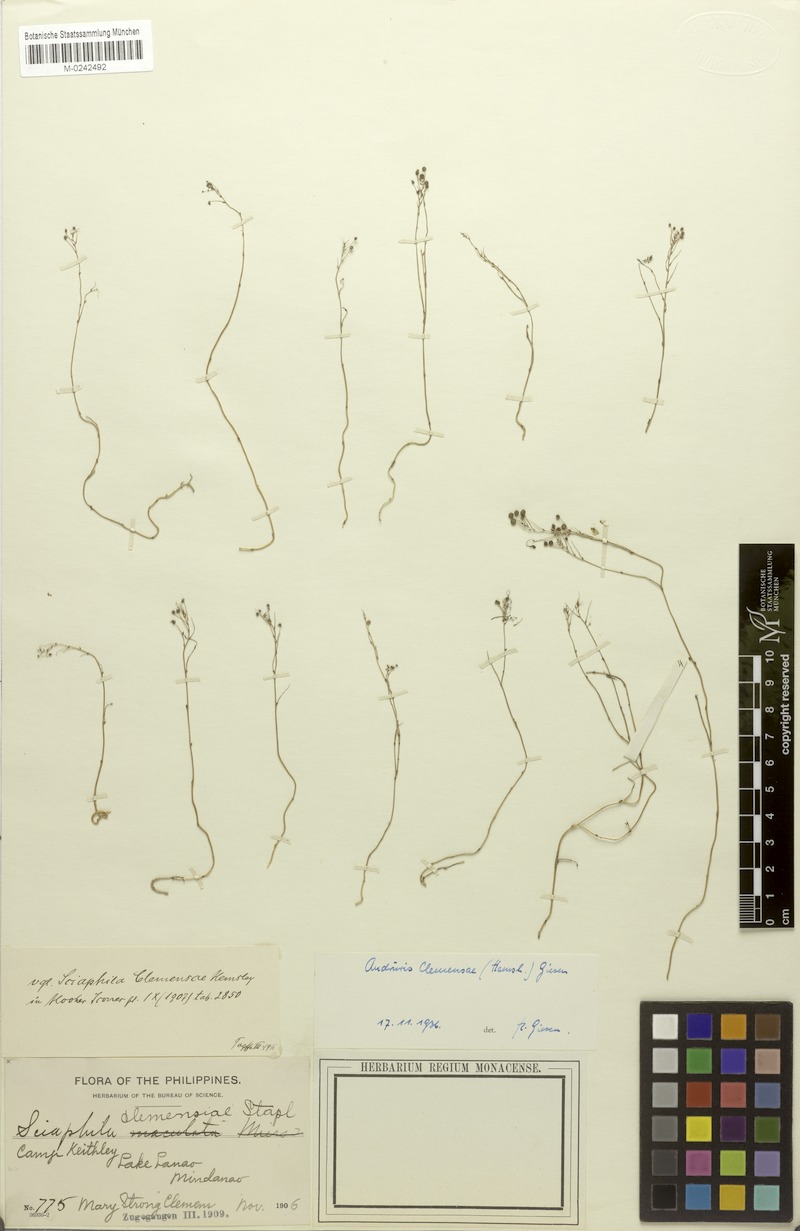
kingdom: Plantae
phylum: Tracheophyta
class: Liliopsida
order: Pandanales
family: Triuridaceae
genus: Sciaphila
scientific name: Sciaphila arfakiana
